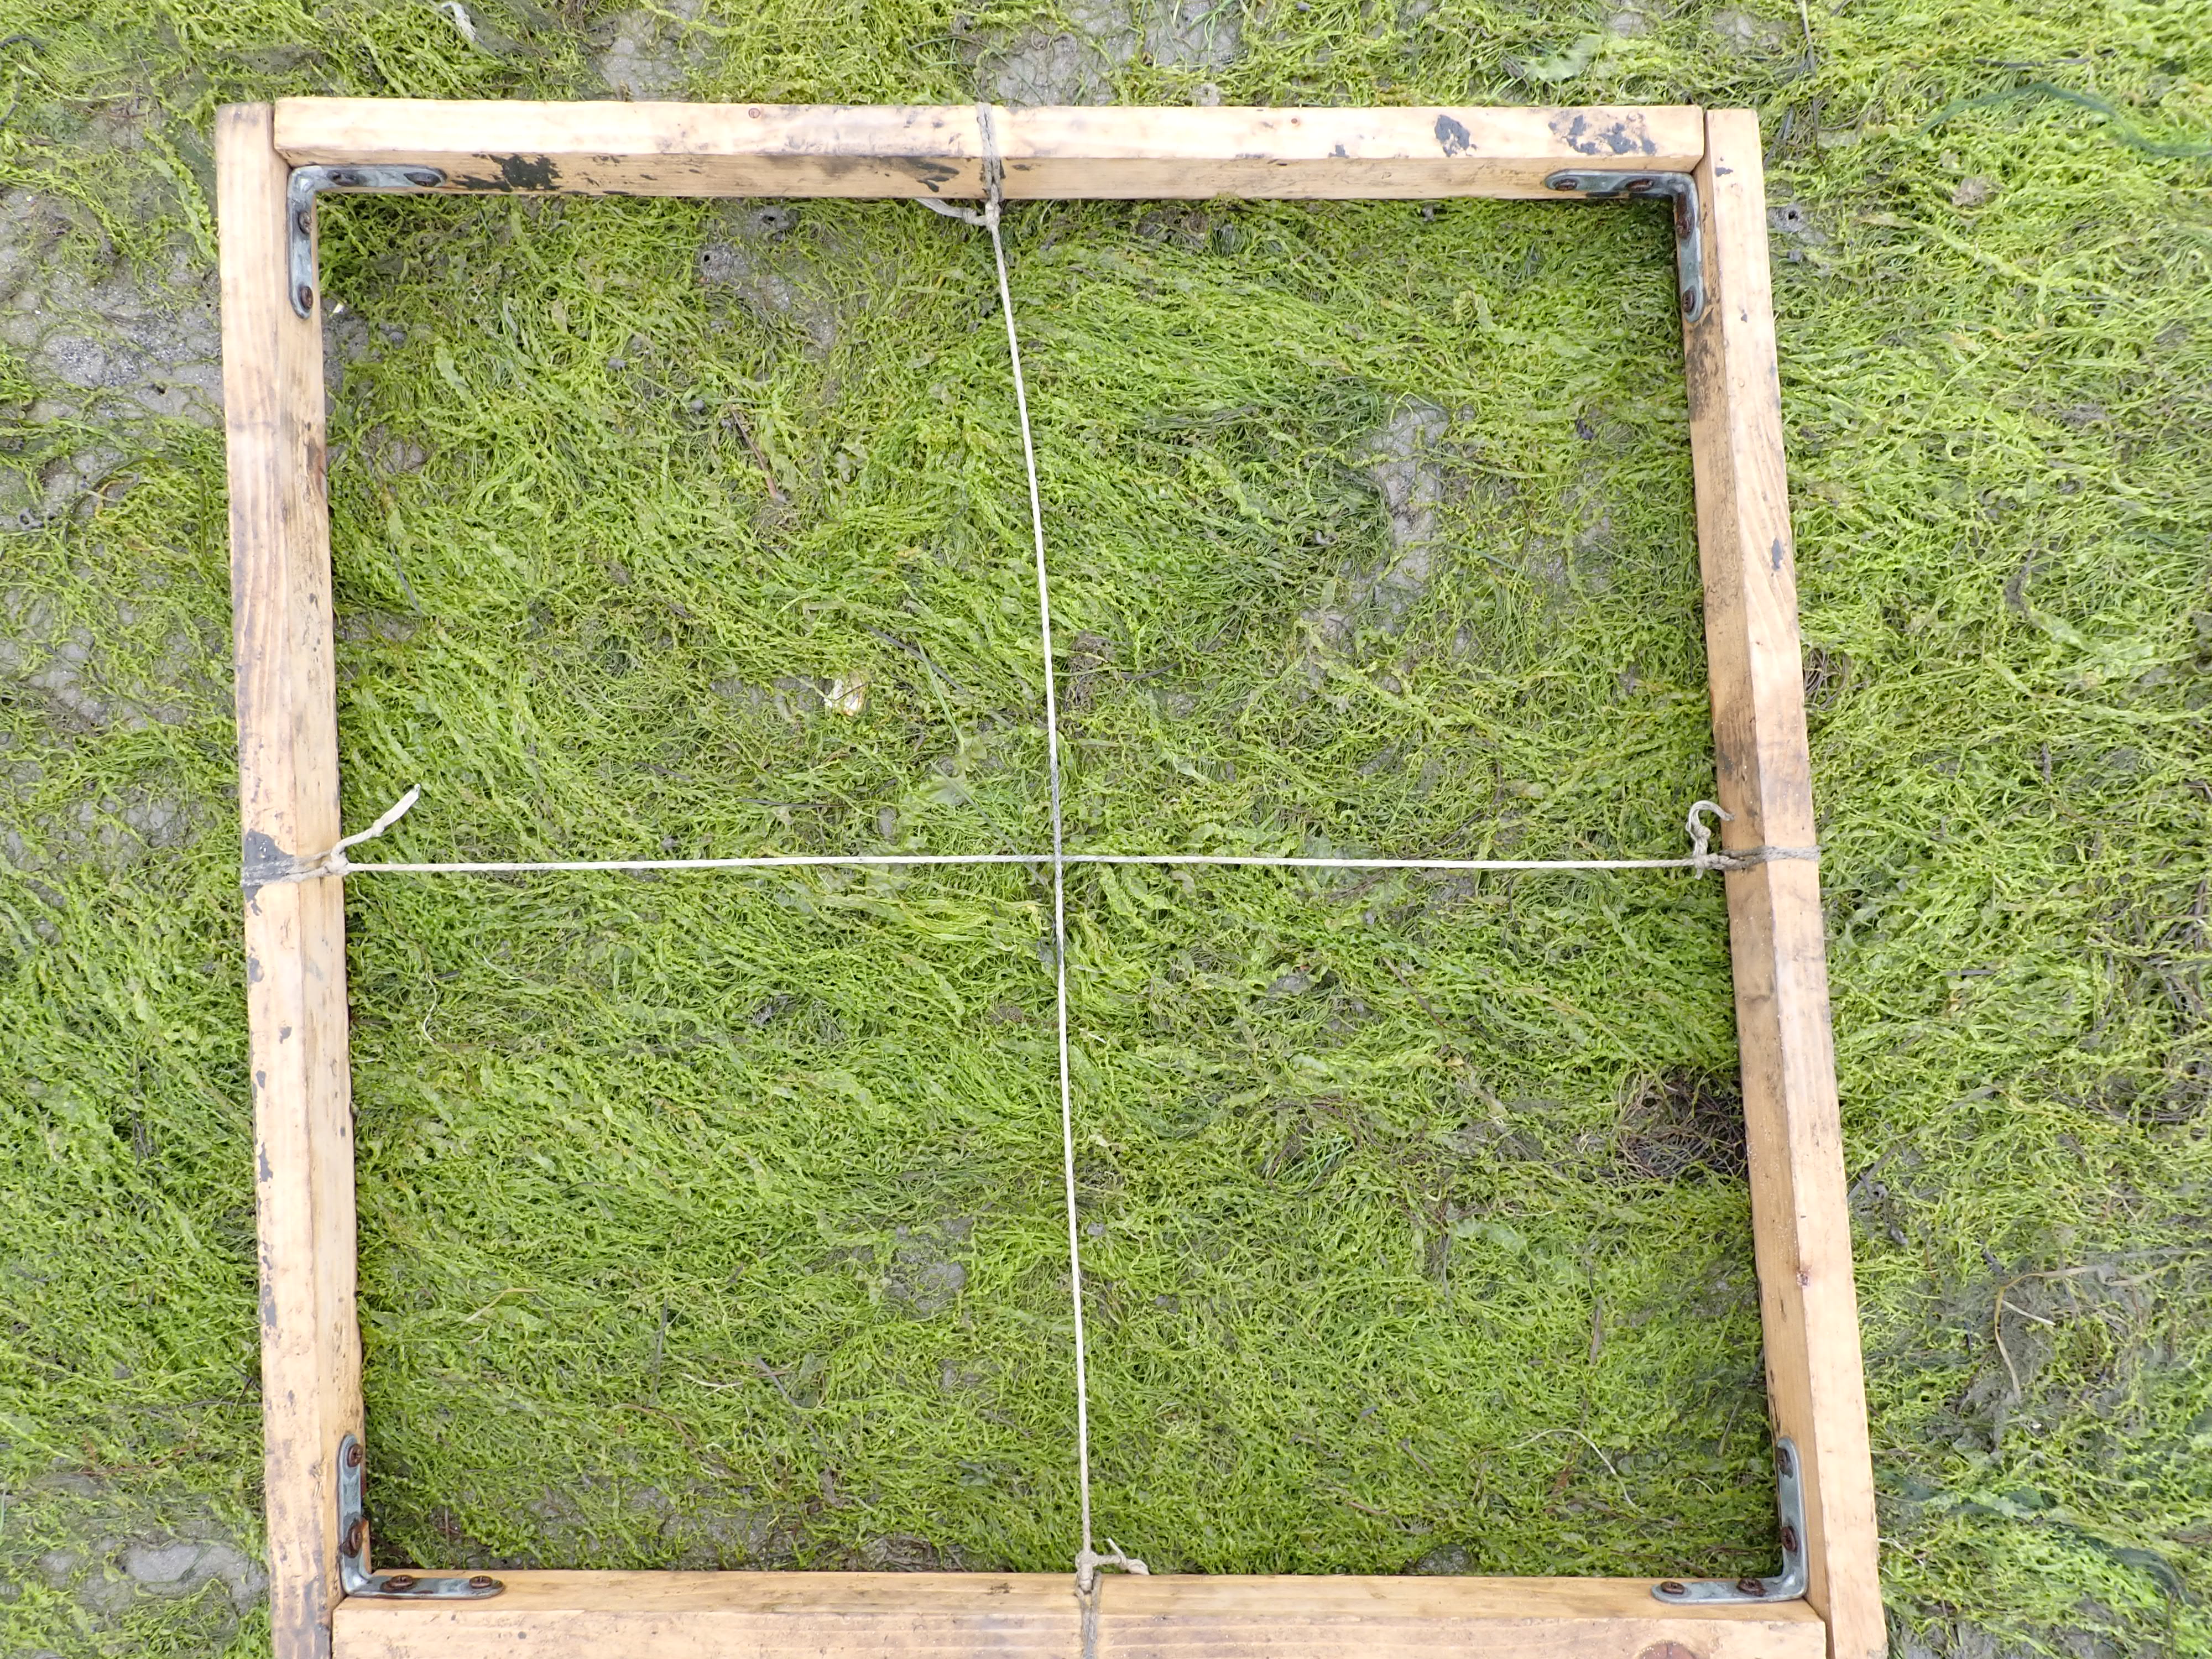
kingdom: Plantae
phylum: Chlorophyta
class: Ulvophyceae
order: Ulvales
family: Ulvaceae
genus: Ulva
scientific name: Ulva
